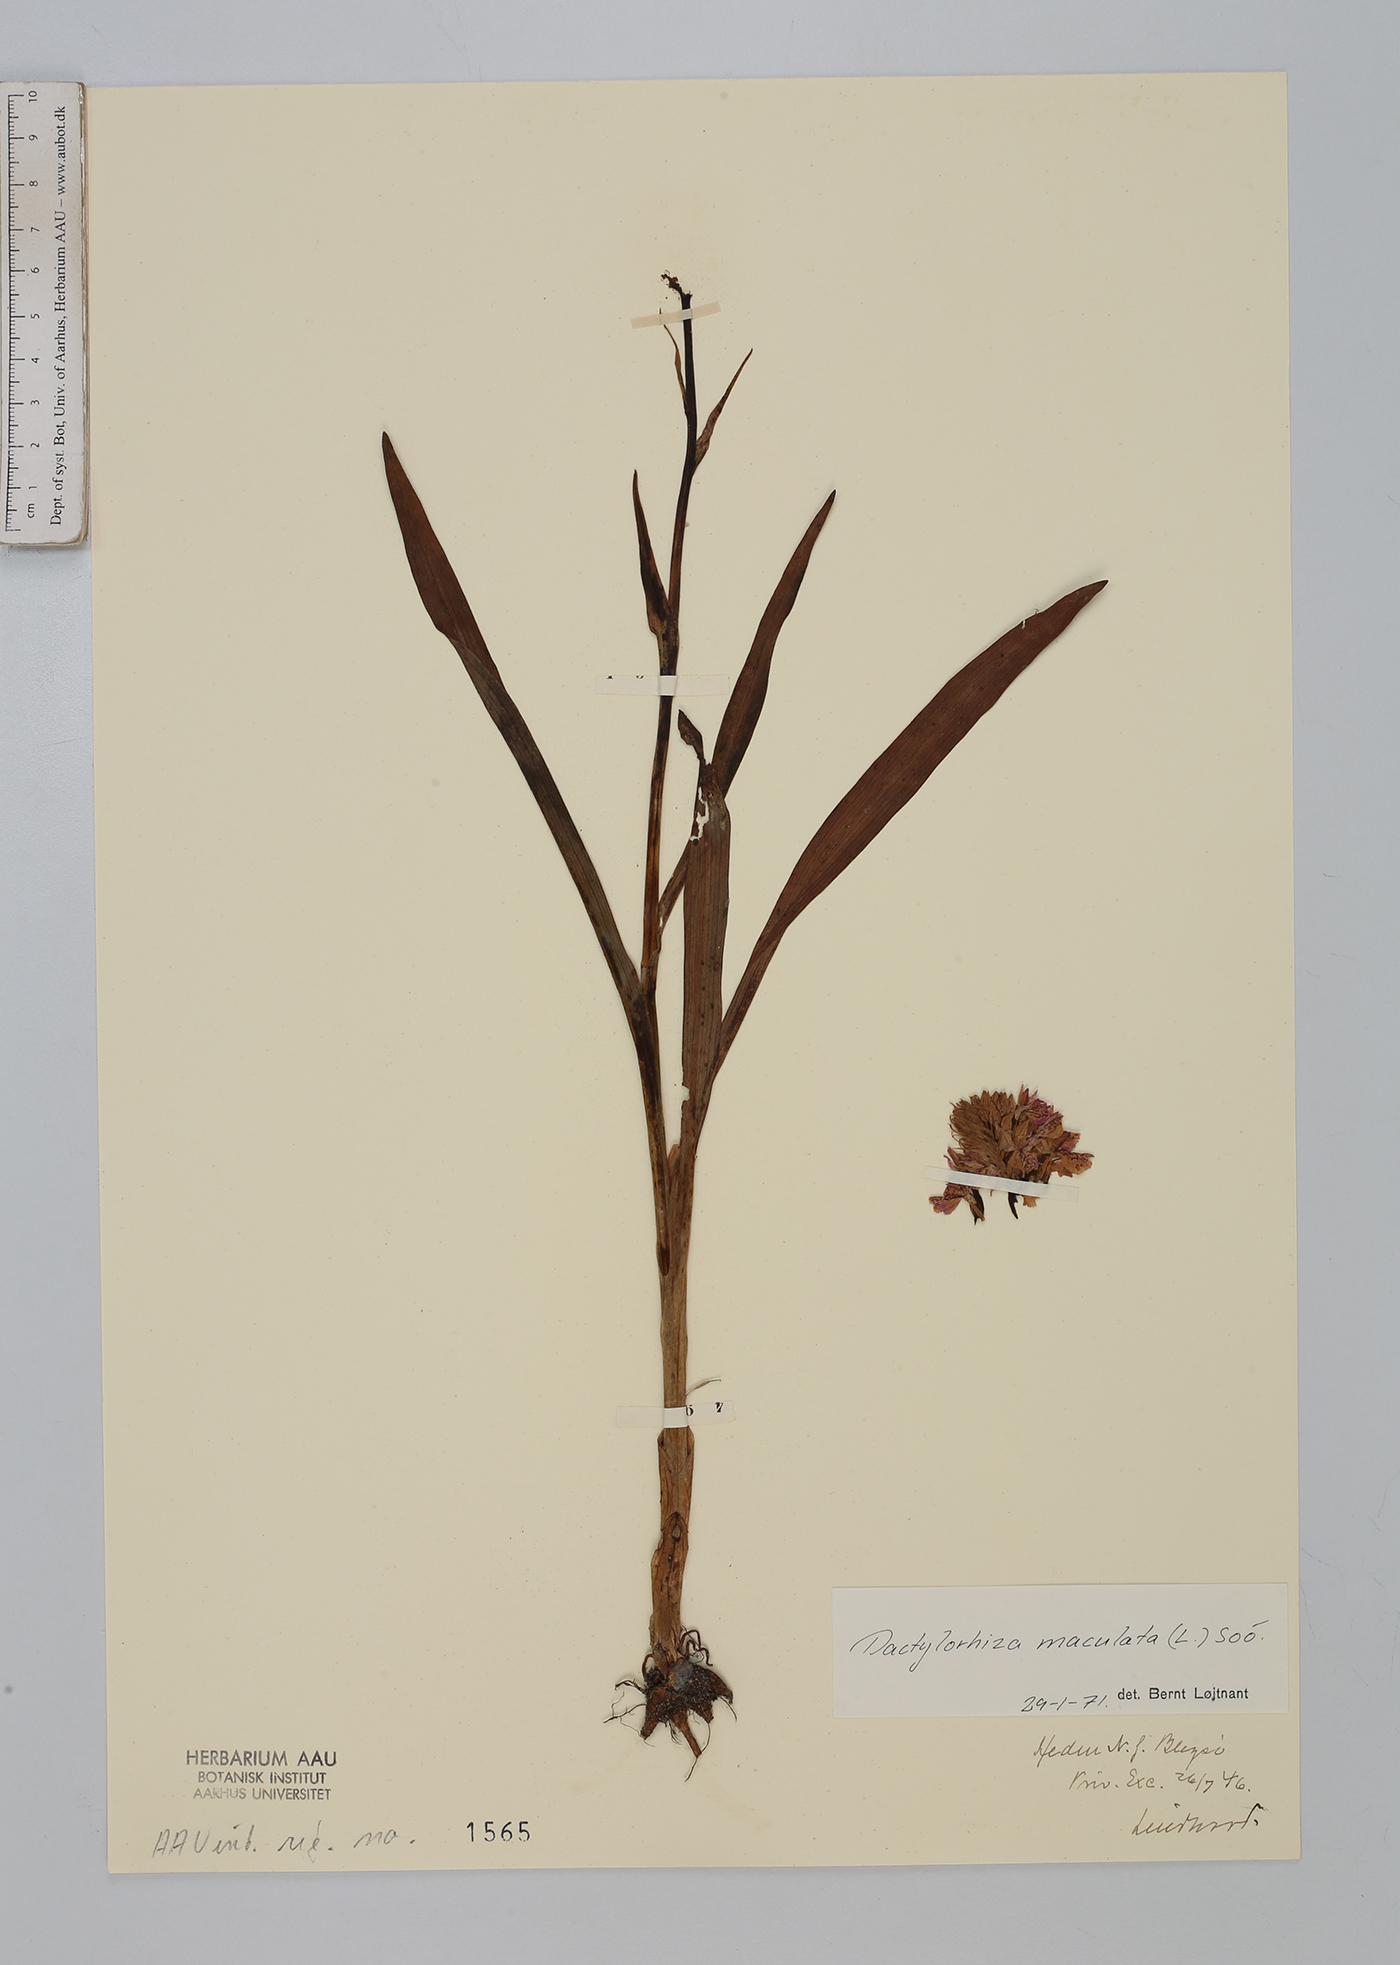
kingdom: Plantae
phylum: Tracheophyta
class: Liliopsida
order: Asparagales
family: Orchidaceae
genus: Dactylorhiza
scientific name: Dactylorhiza maculata
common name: Heath spotted-orchid
